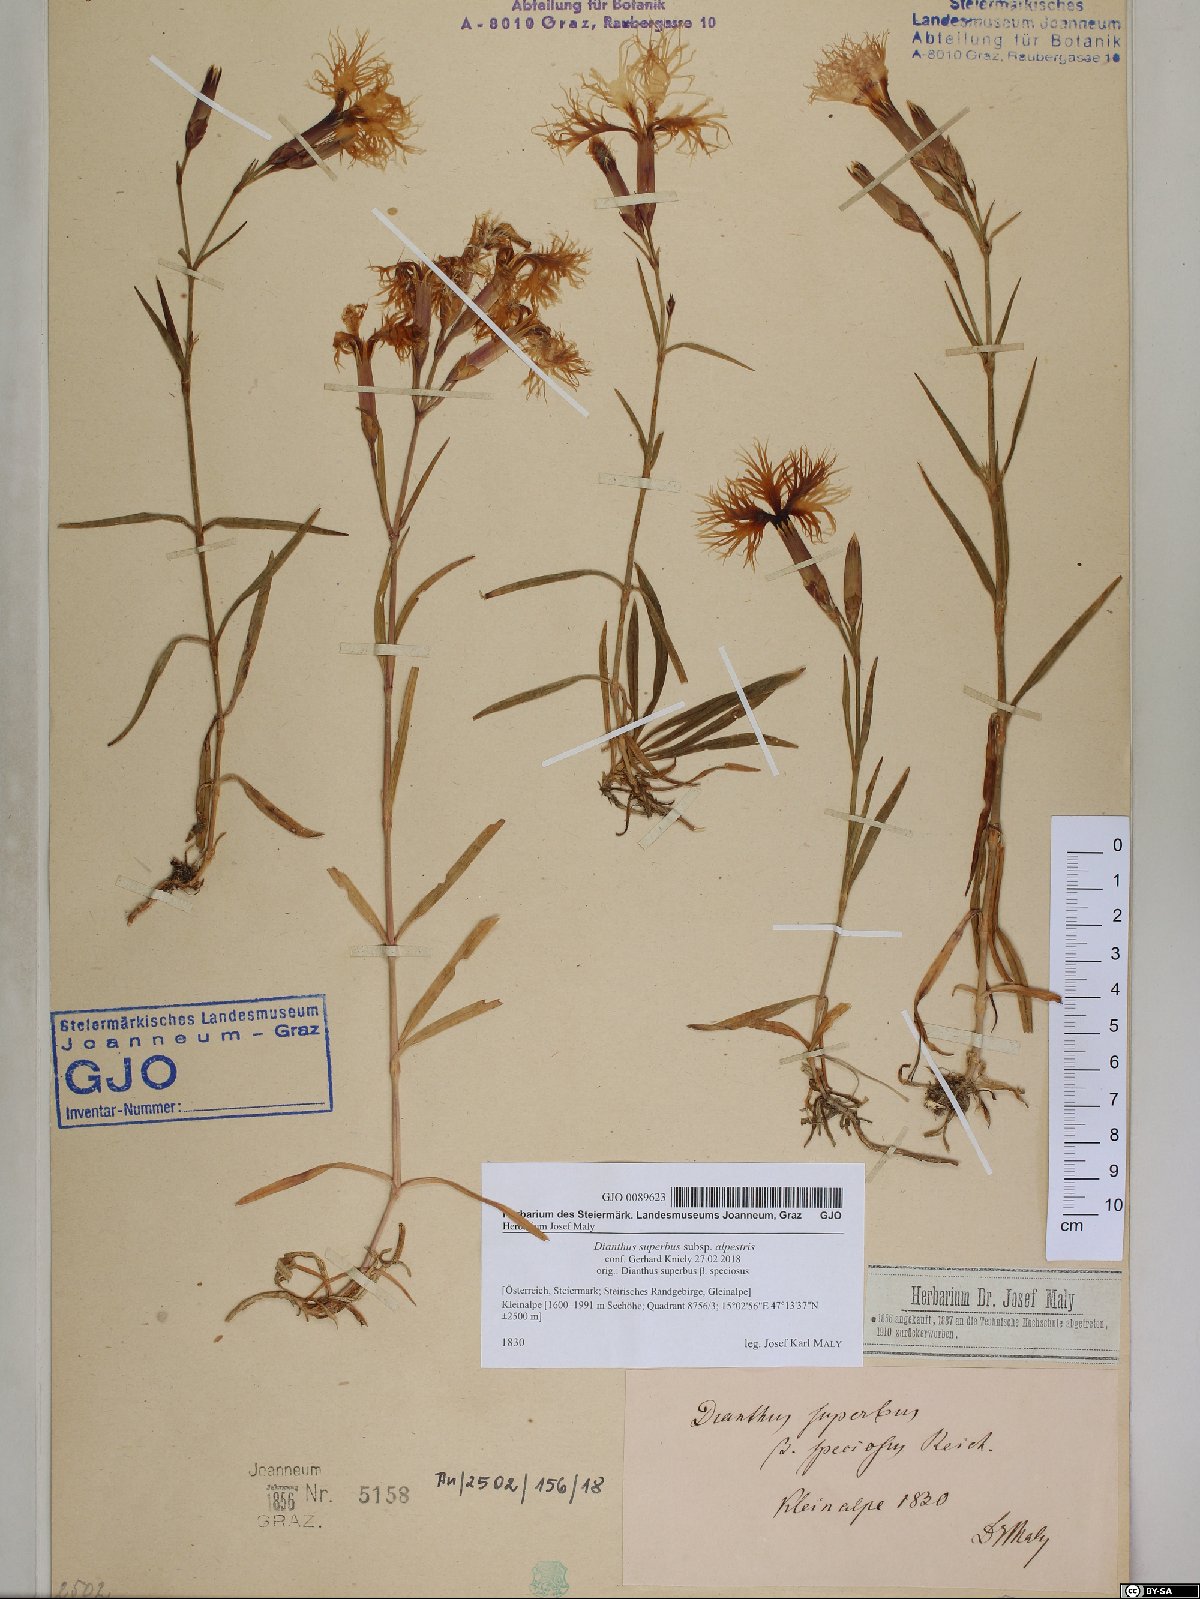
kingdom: Plantae
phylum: Tracheophyta
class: Magnoliopsida
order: Caryophyllales
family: Caryophyllaceae
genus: Dianthus
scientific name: Dianthus superbus
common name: Fringed pink
